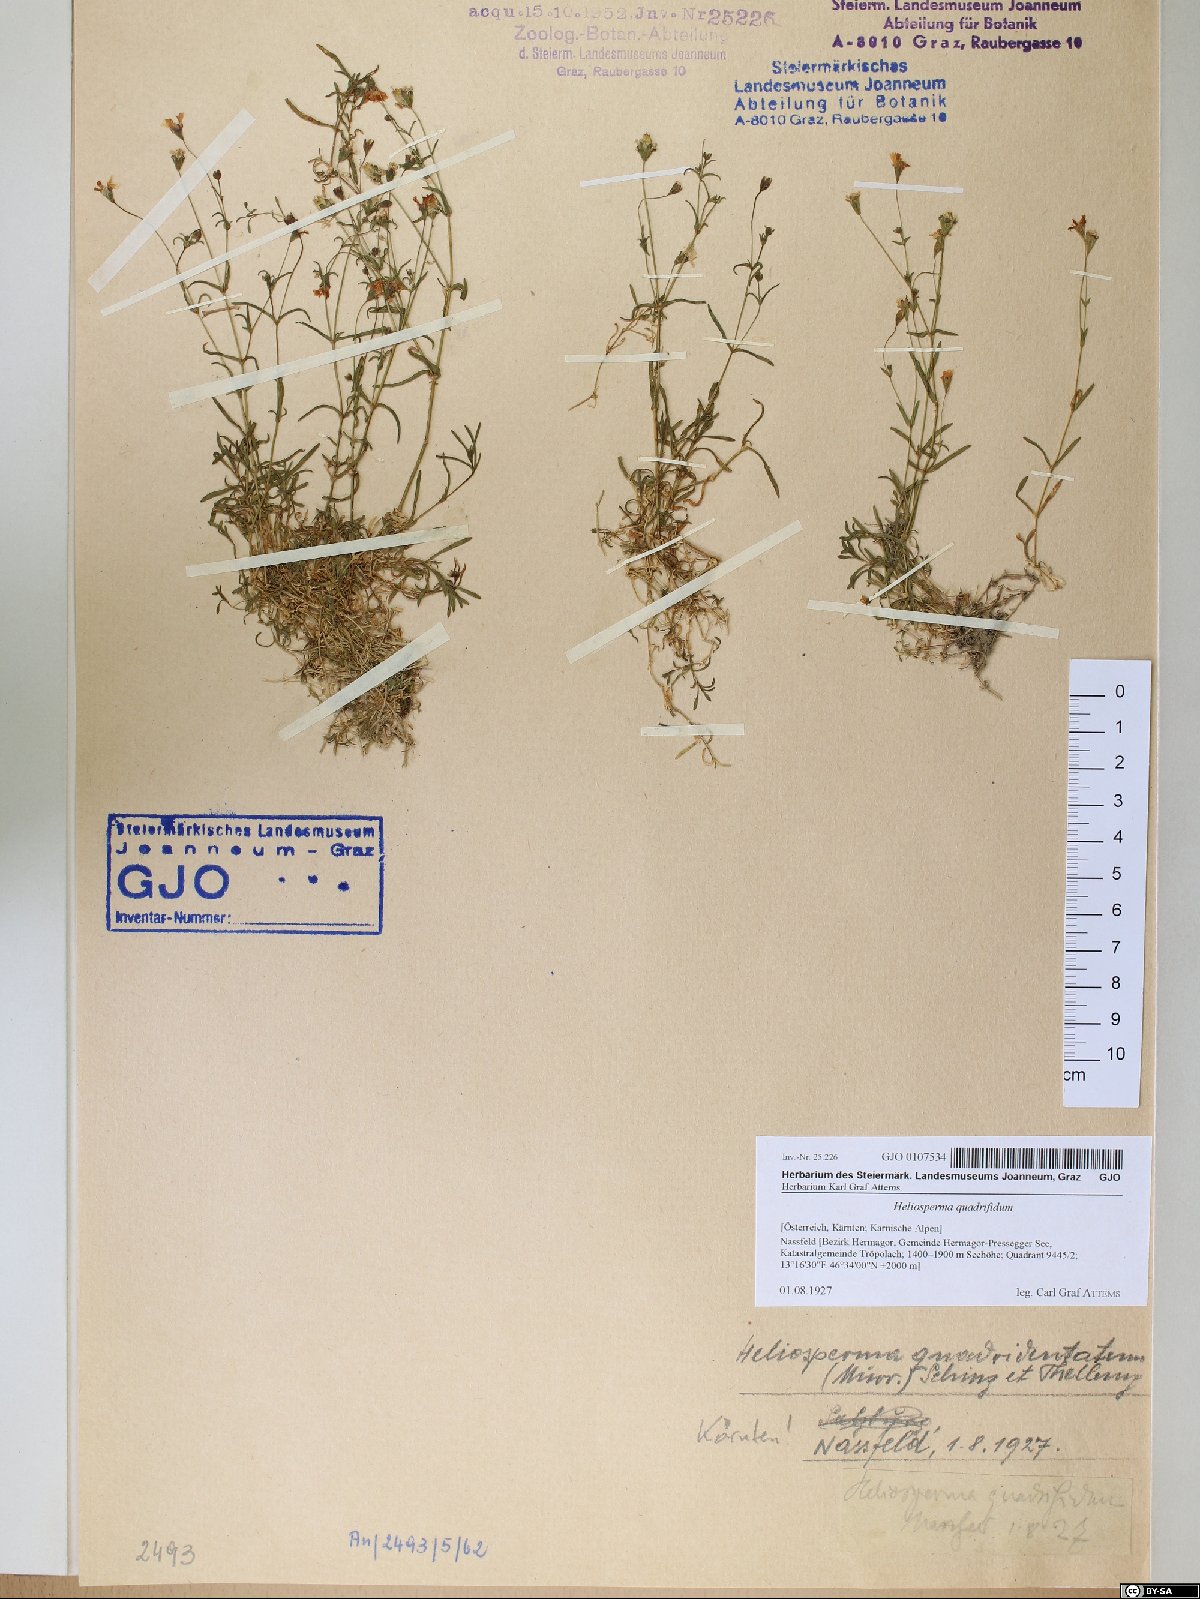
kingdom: Plantae
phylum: Tracheophyta
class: Magnoliopsida
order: Caryophyllales
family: Caryophyllaceae
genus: Heliosperma
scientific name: Heliosperma alpestre
